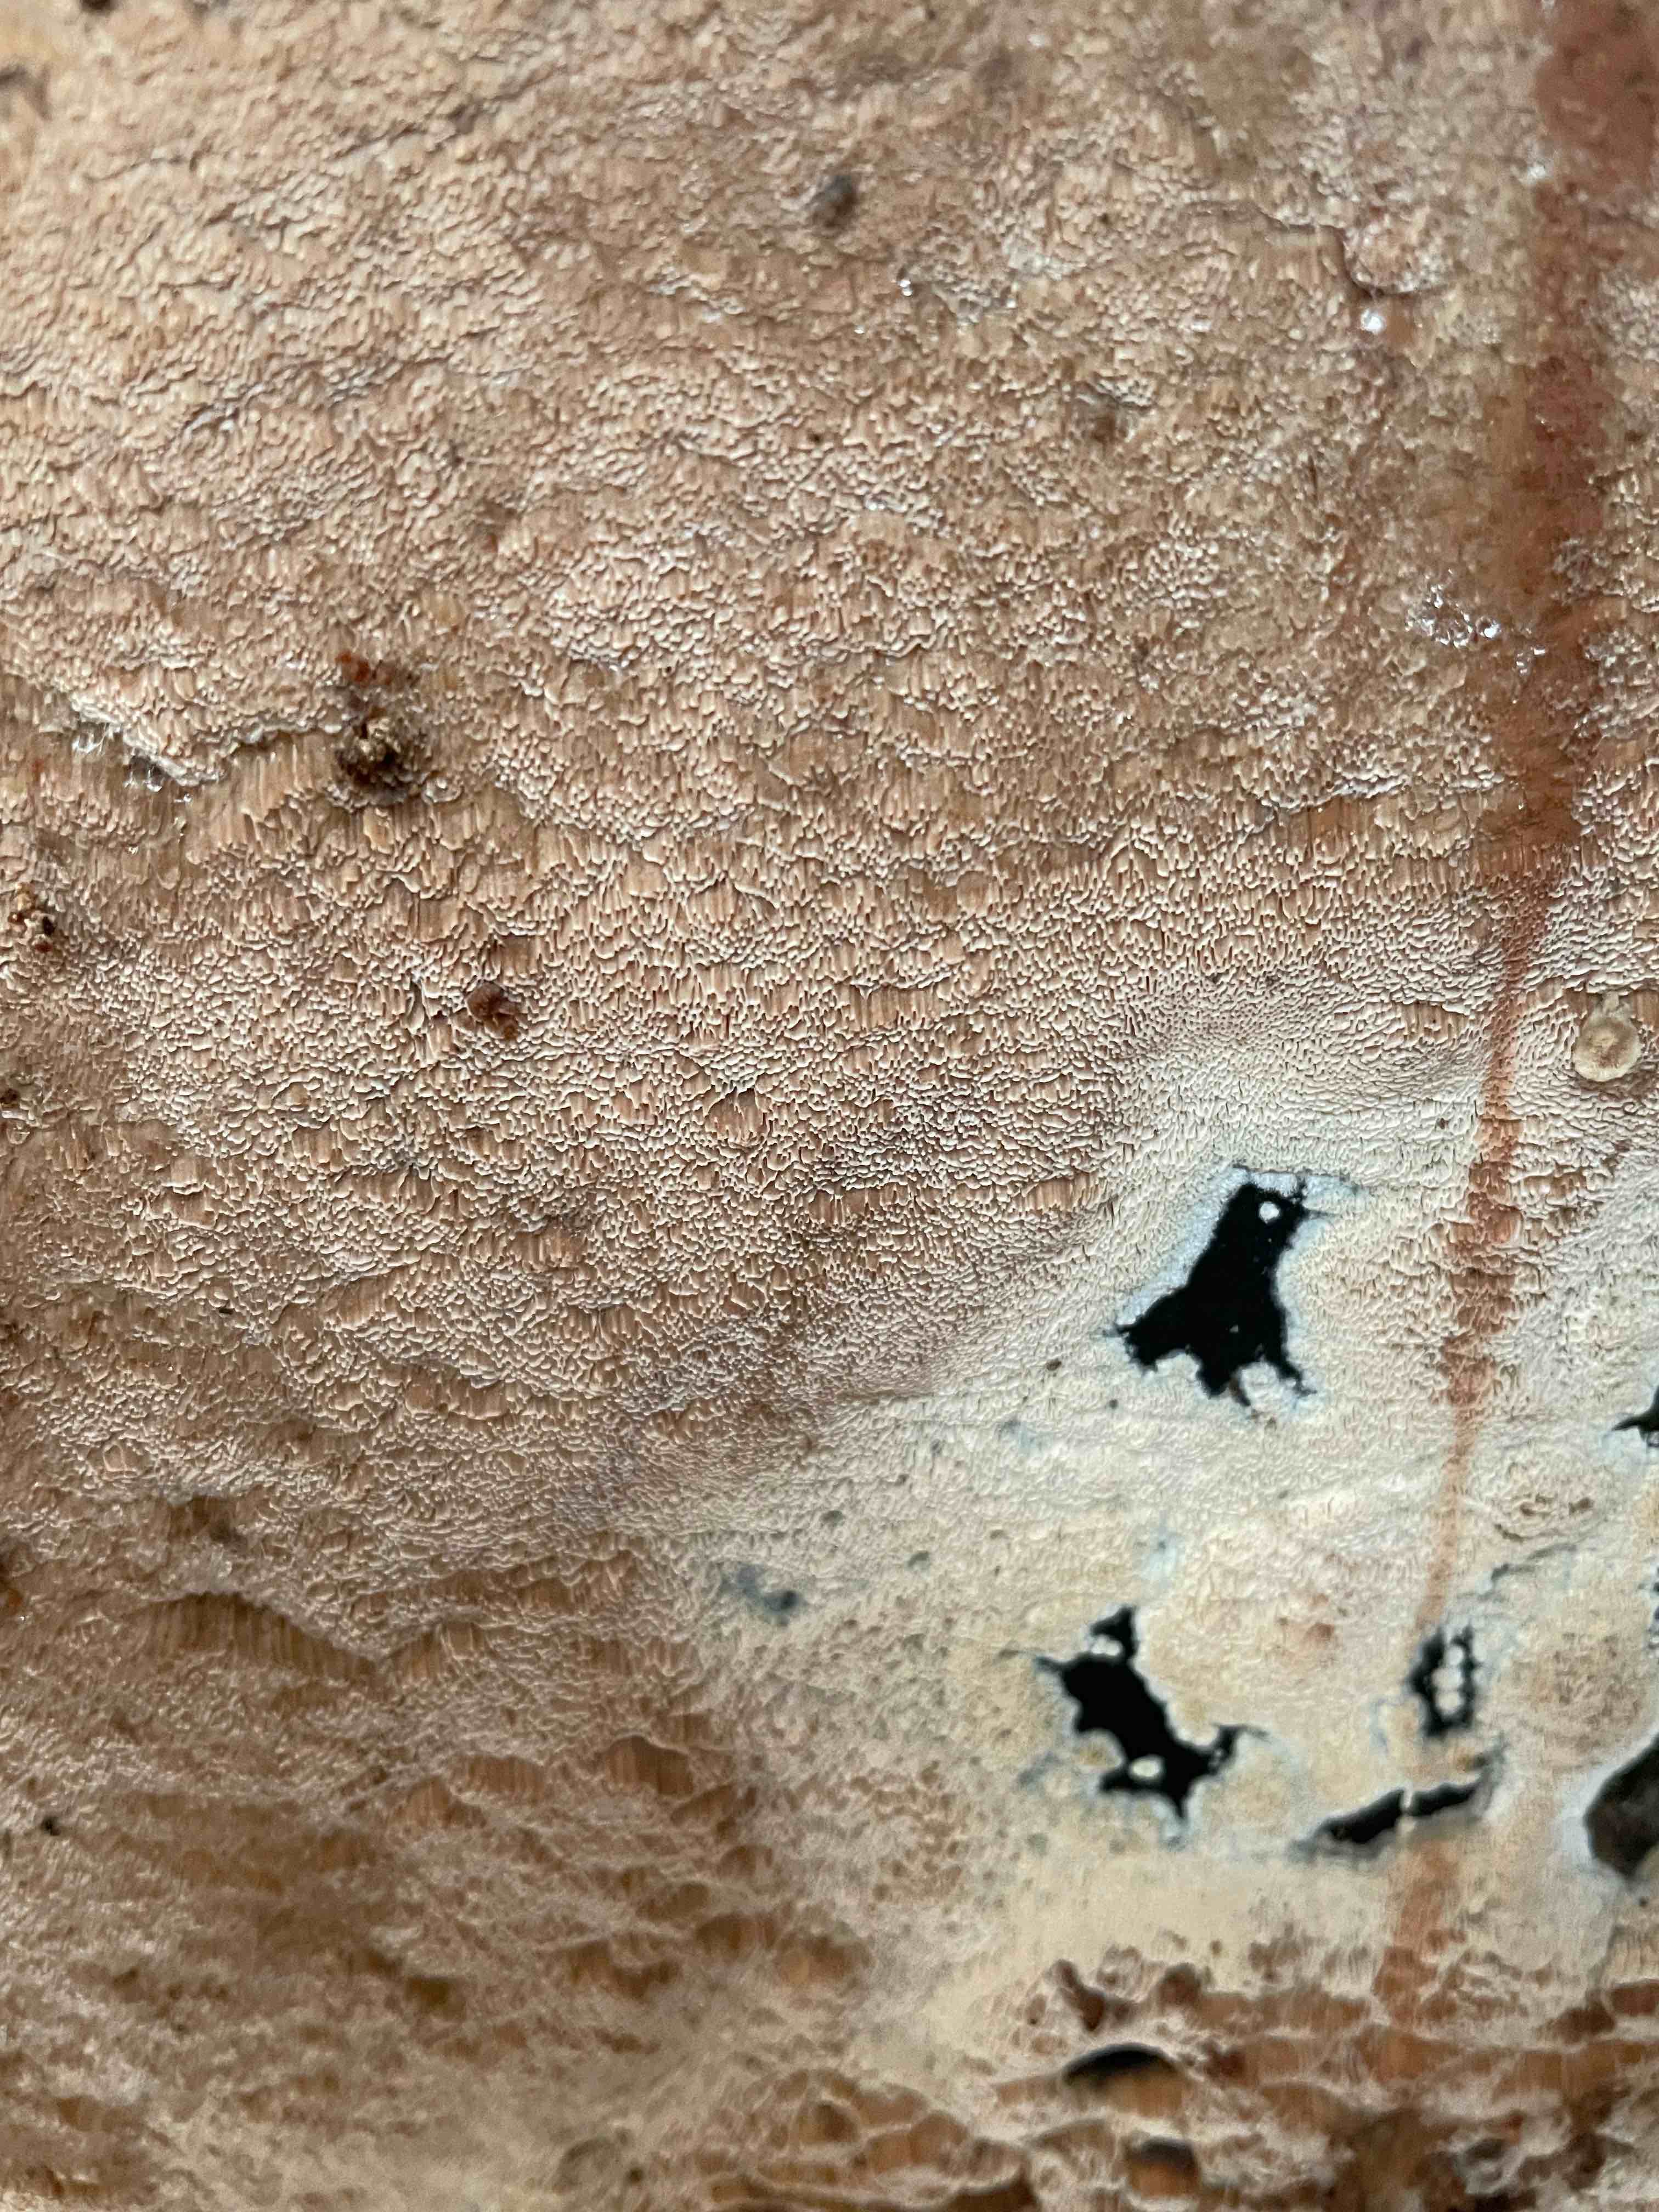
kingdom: Fungi
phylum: Basidiomycota
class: Agaricomycetes
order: Polyporales
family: Meruliaceae
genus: Mycoacia
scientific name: Mycoacia gilvescens
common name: rosa pastelporesvamp
